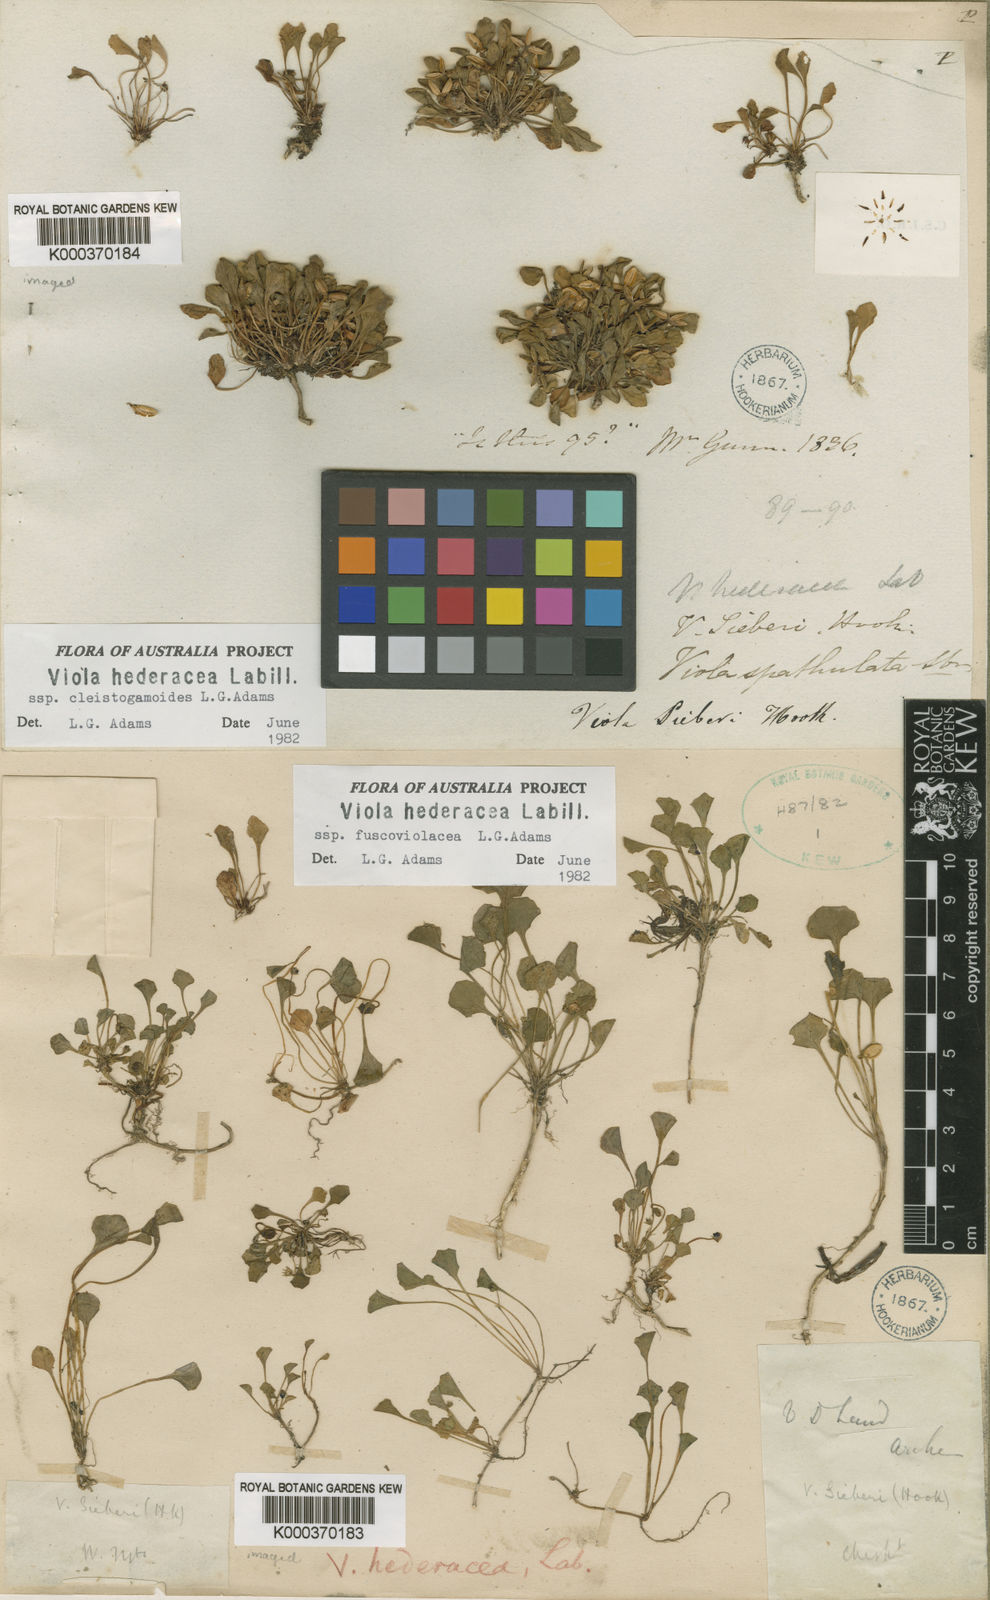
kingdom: Plantae
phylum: Tracheophyta
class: Magnoliopsida
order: Malpighiales
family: Violaceae
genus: Viola
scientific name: Viola hederacea
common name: Australian violet
